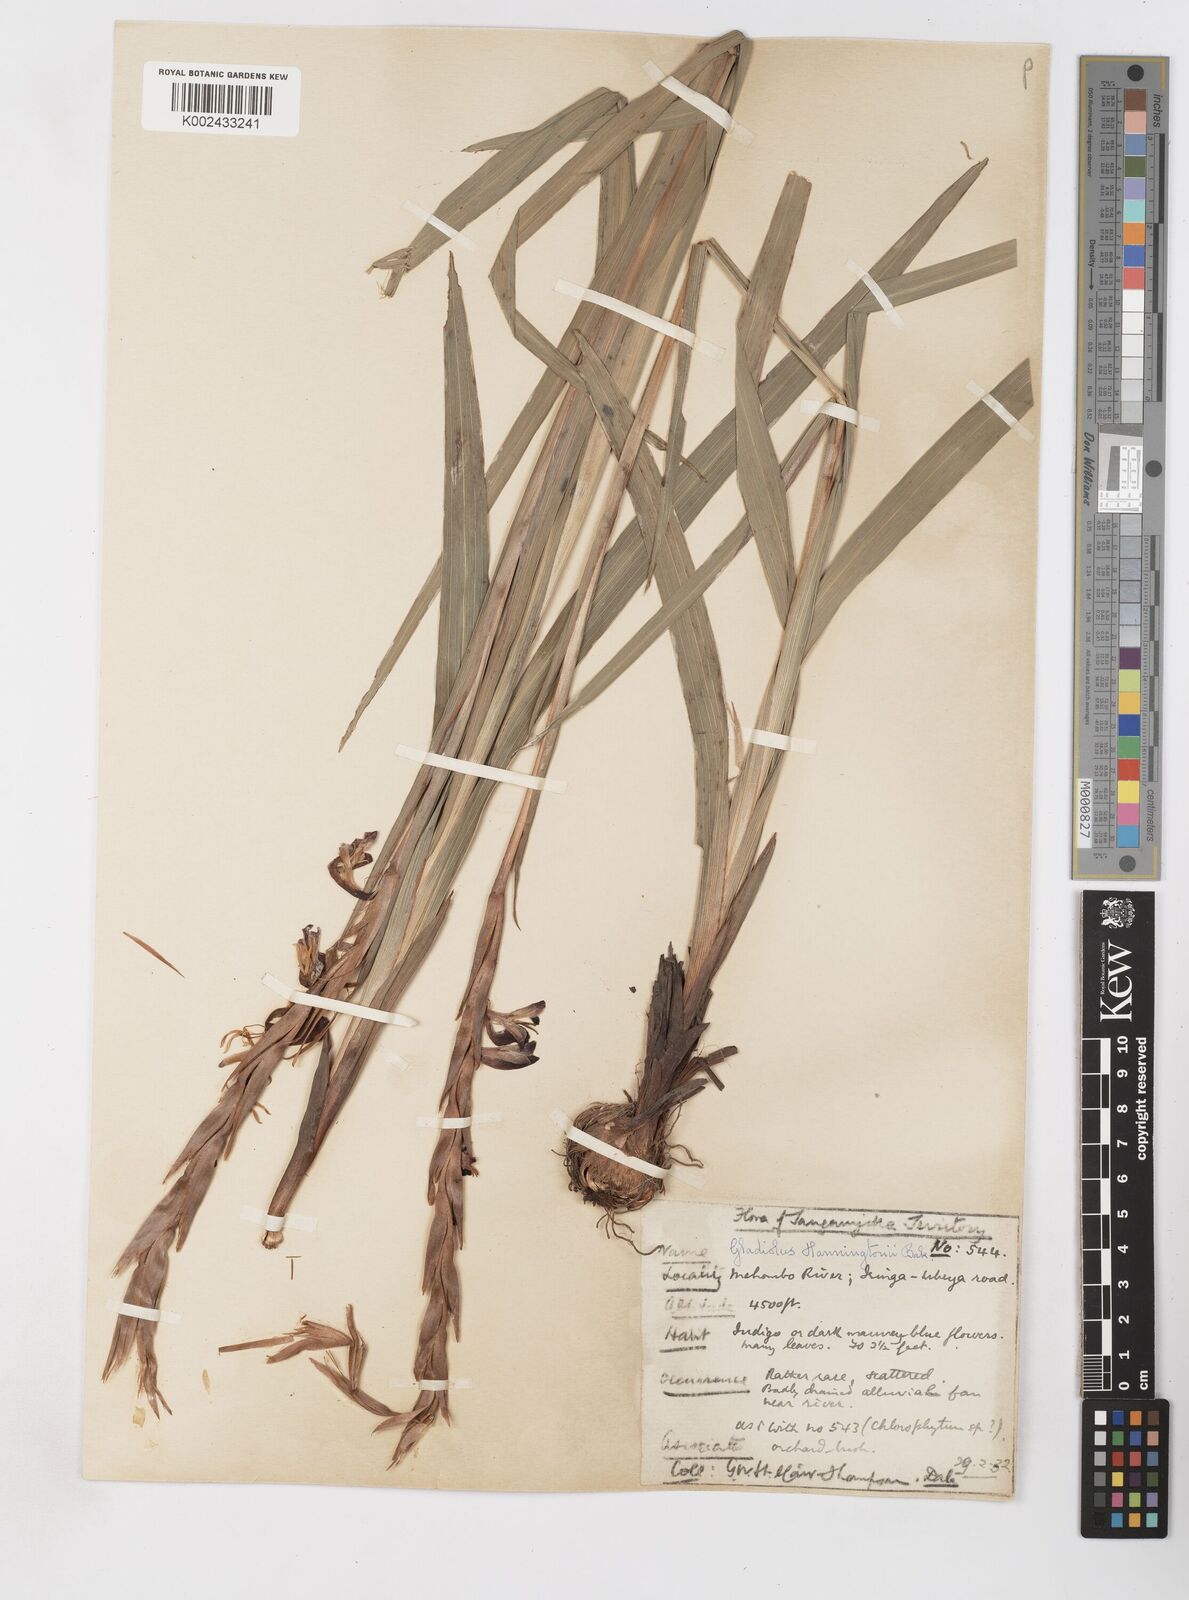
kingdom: Plantae
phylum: Tracheophyta
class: Liliopsida
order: Asparagales
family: Iridaceae
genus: Gladiolus
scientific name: Gladiolus gregarius
